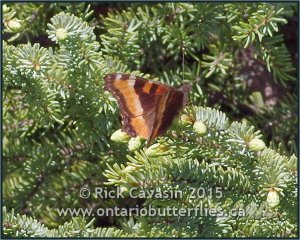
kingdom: Animalia
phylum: Arthropoda
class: Insecta
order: Lepidoptera
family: Nymphalidae
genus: Aglais
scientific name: Aglais milberti
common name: Milbert's Tortoiseshell
